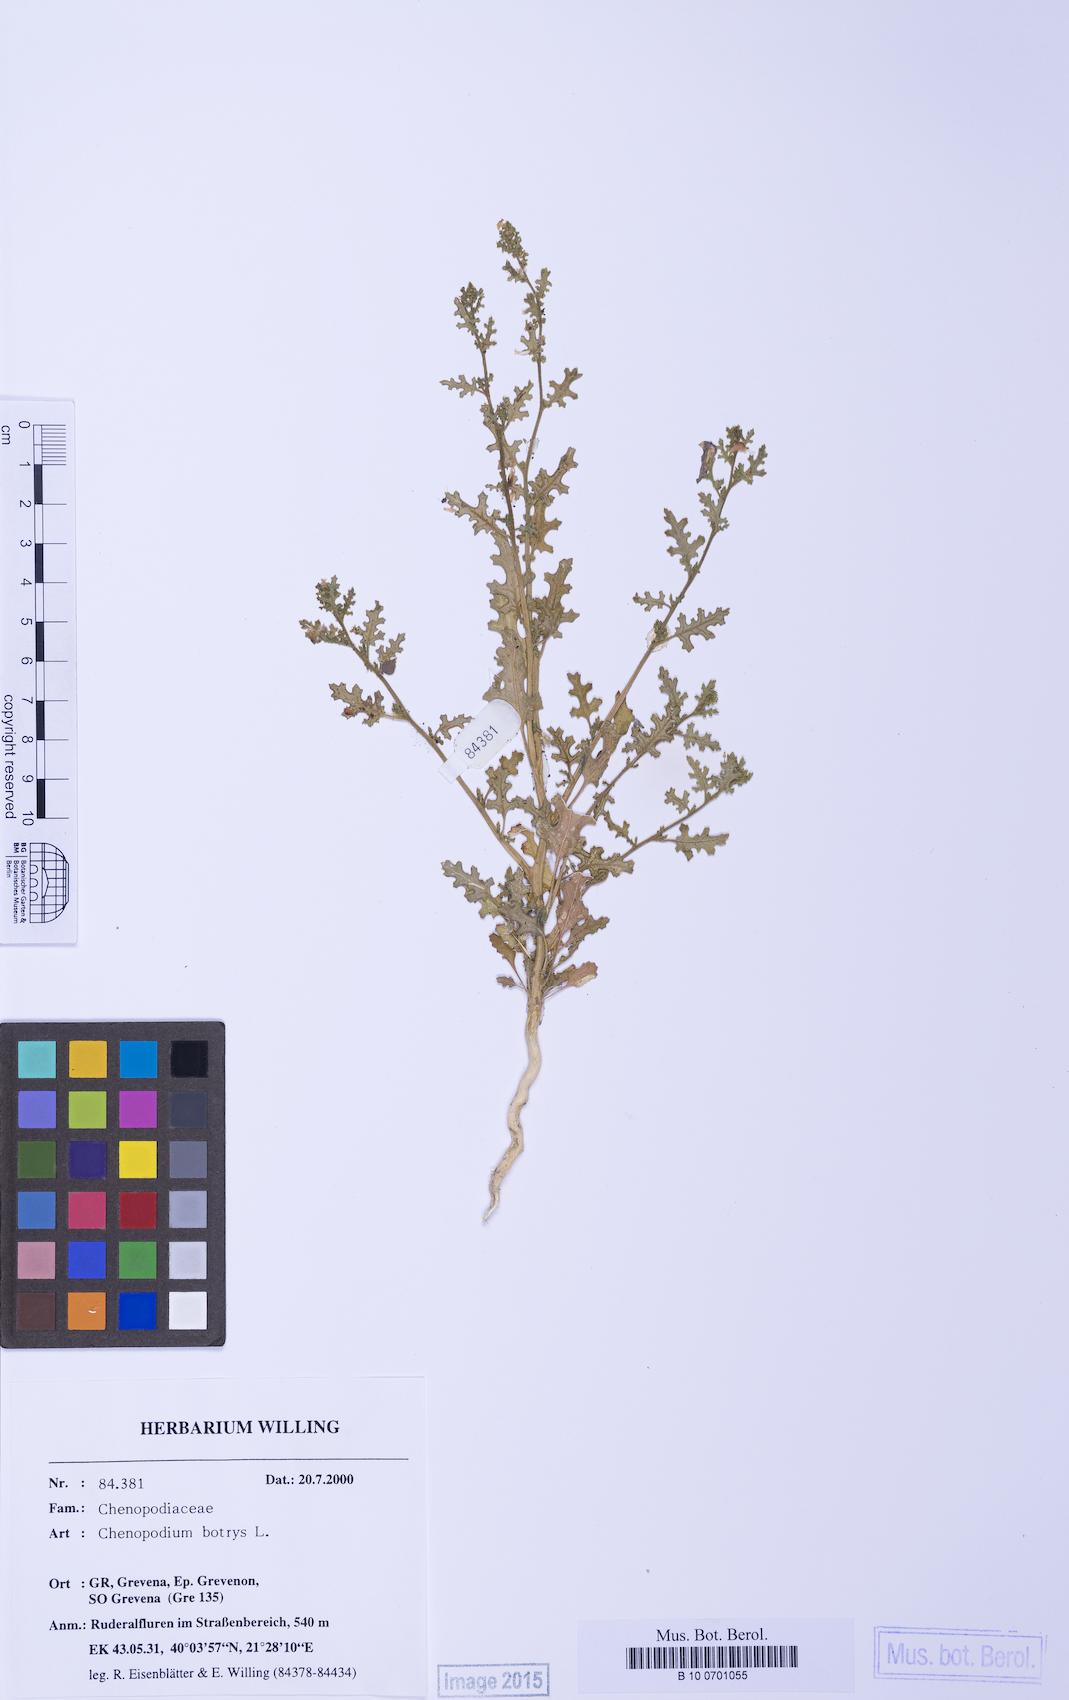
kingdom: Plantae
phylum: Tracheophyta
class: Magnoliopsida
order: Caryophyllales
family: Amaranthaceae
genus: Dysphania
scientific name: Dysphania botrys
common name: Feather-geranium
